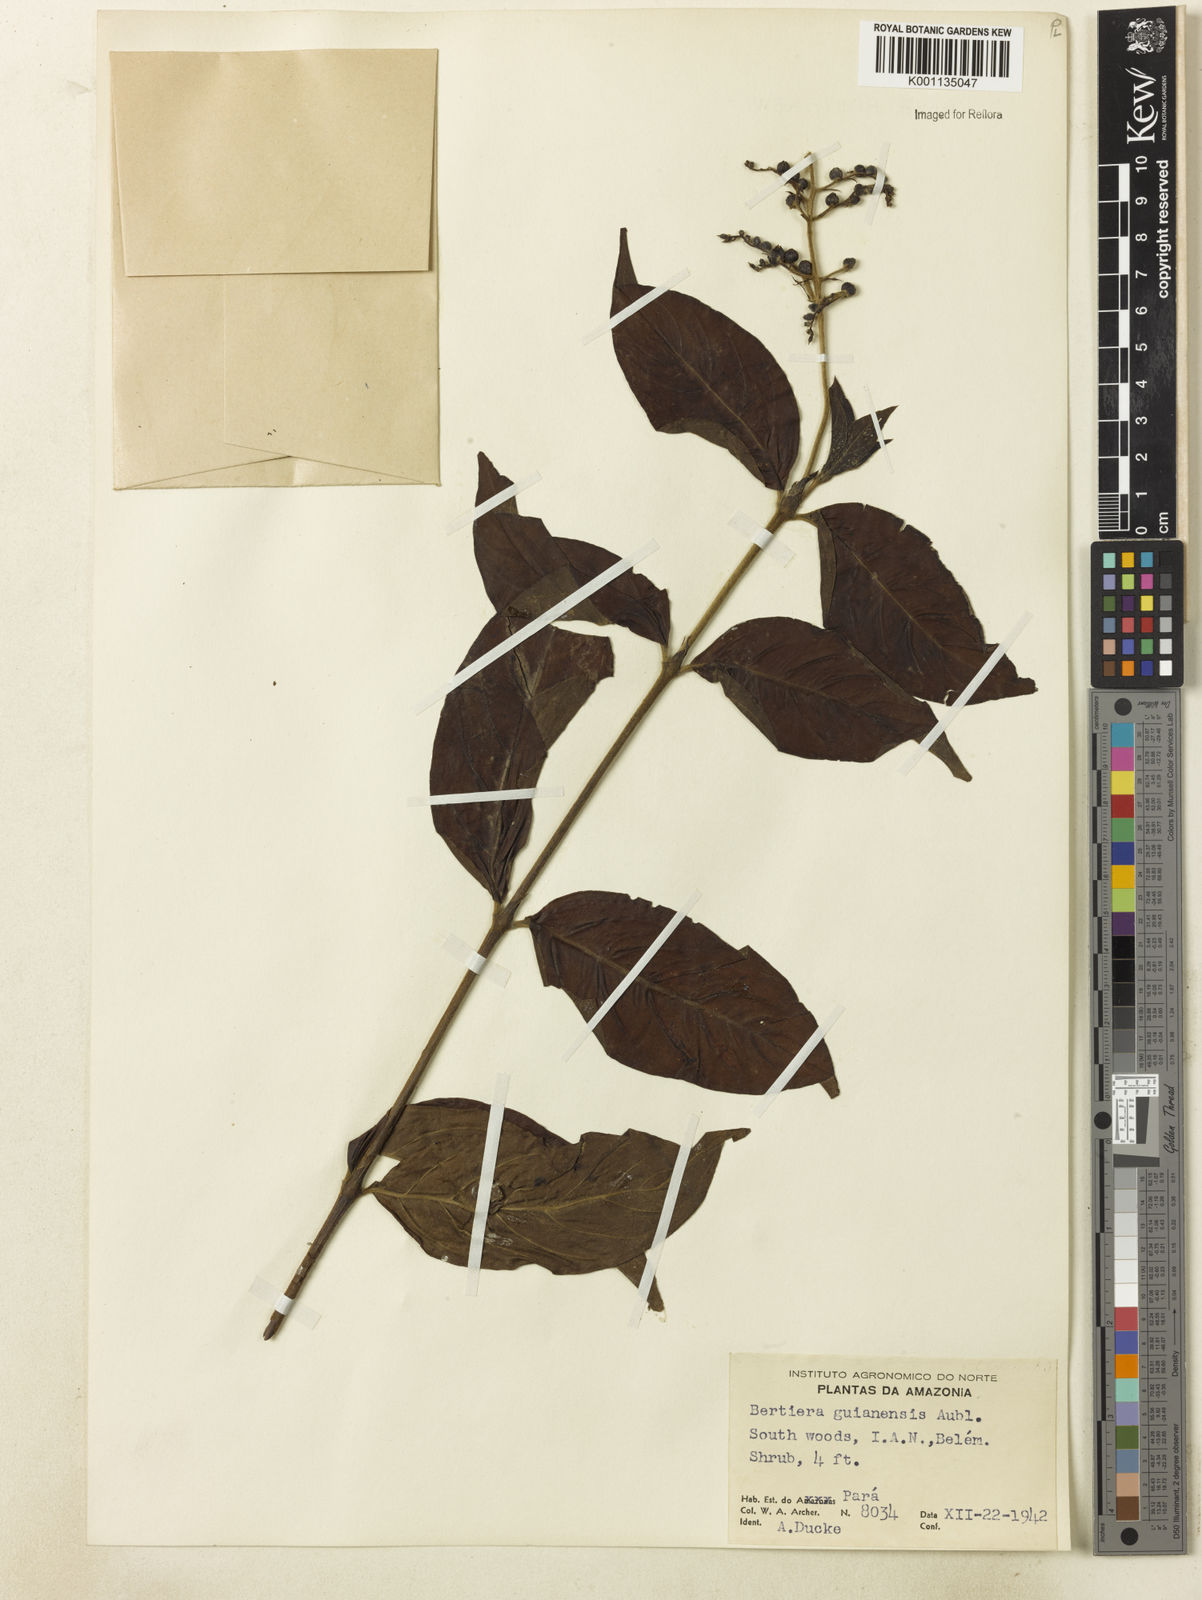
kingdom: Plantae
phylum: Tracheophyta
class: Magnoliopsida
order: Gentianales
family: Rubiaceae
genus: Bertiera
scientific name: Bertiera guianensis
